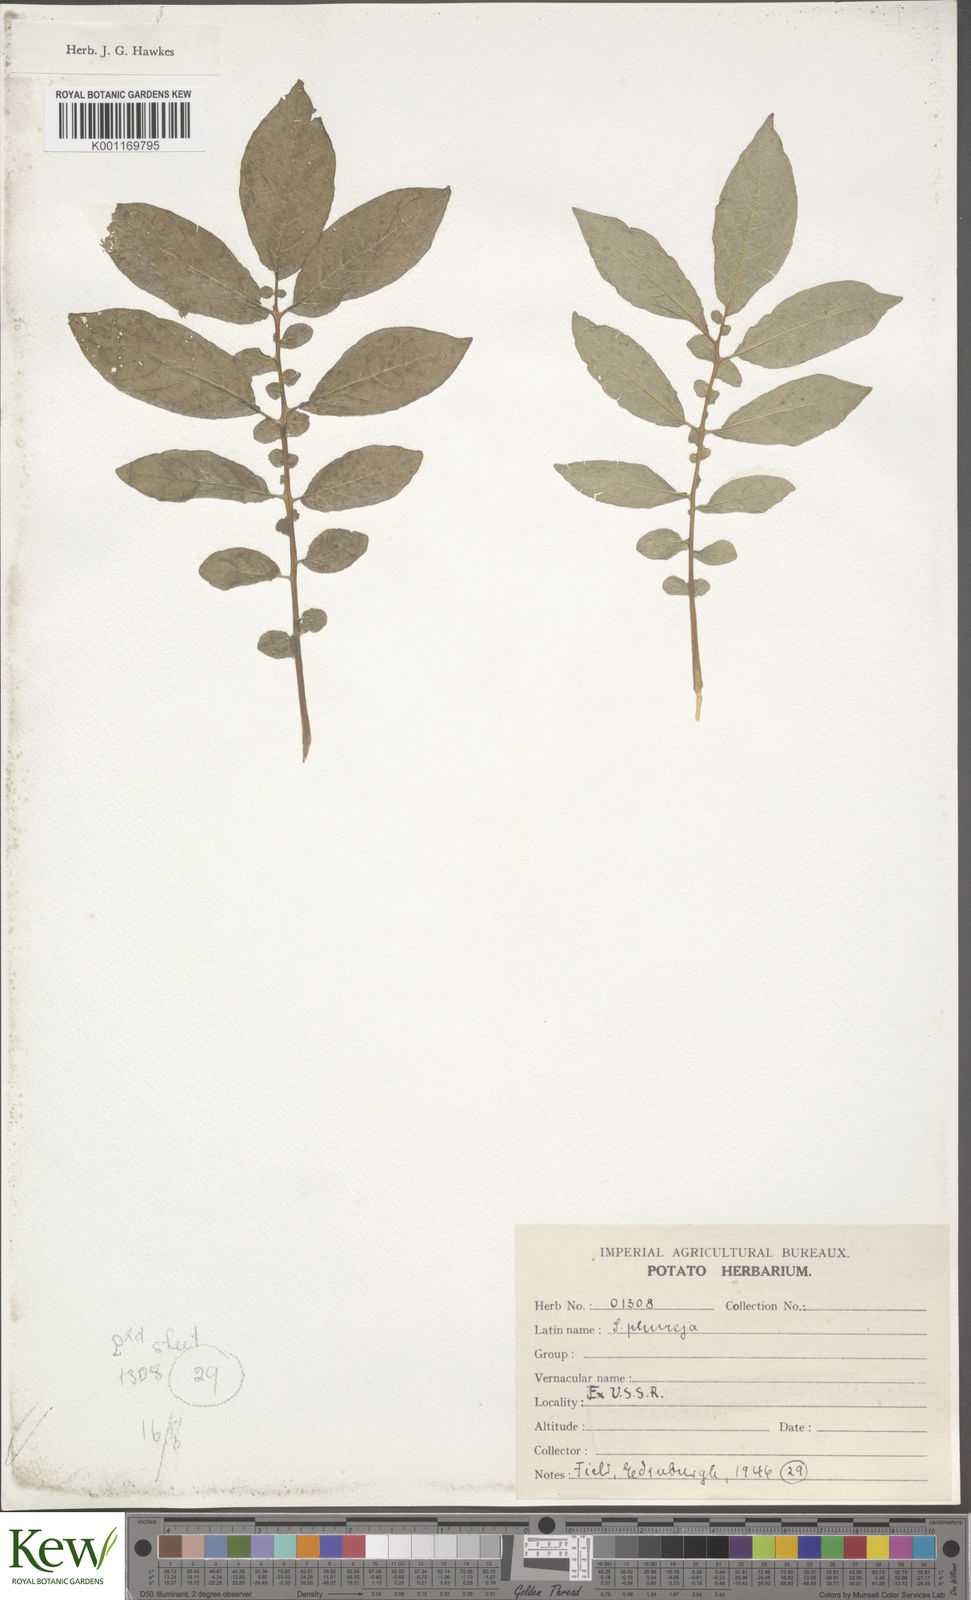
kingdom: Plantae
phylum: Tracheophyta
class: Magnoliopsida
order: Solanales
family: Solanaceae
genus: Solanum
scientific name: Solanum tuberosum
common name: Potato
